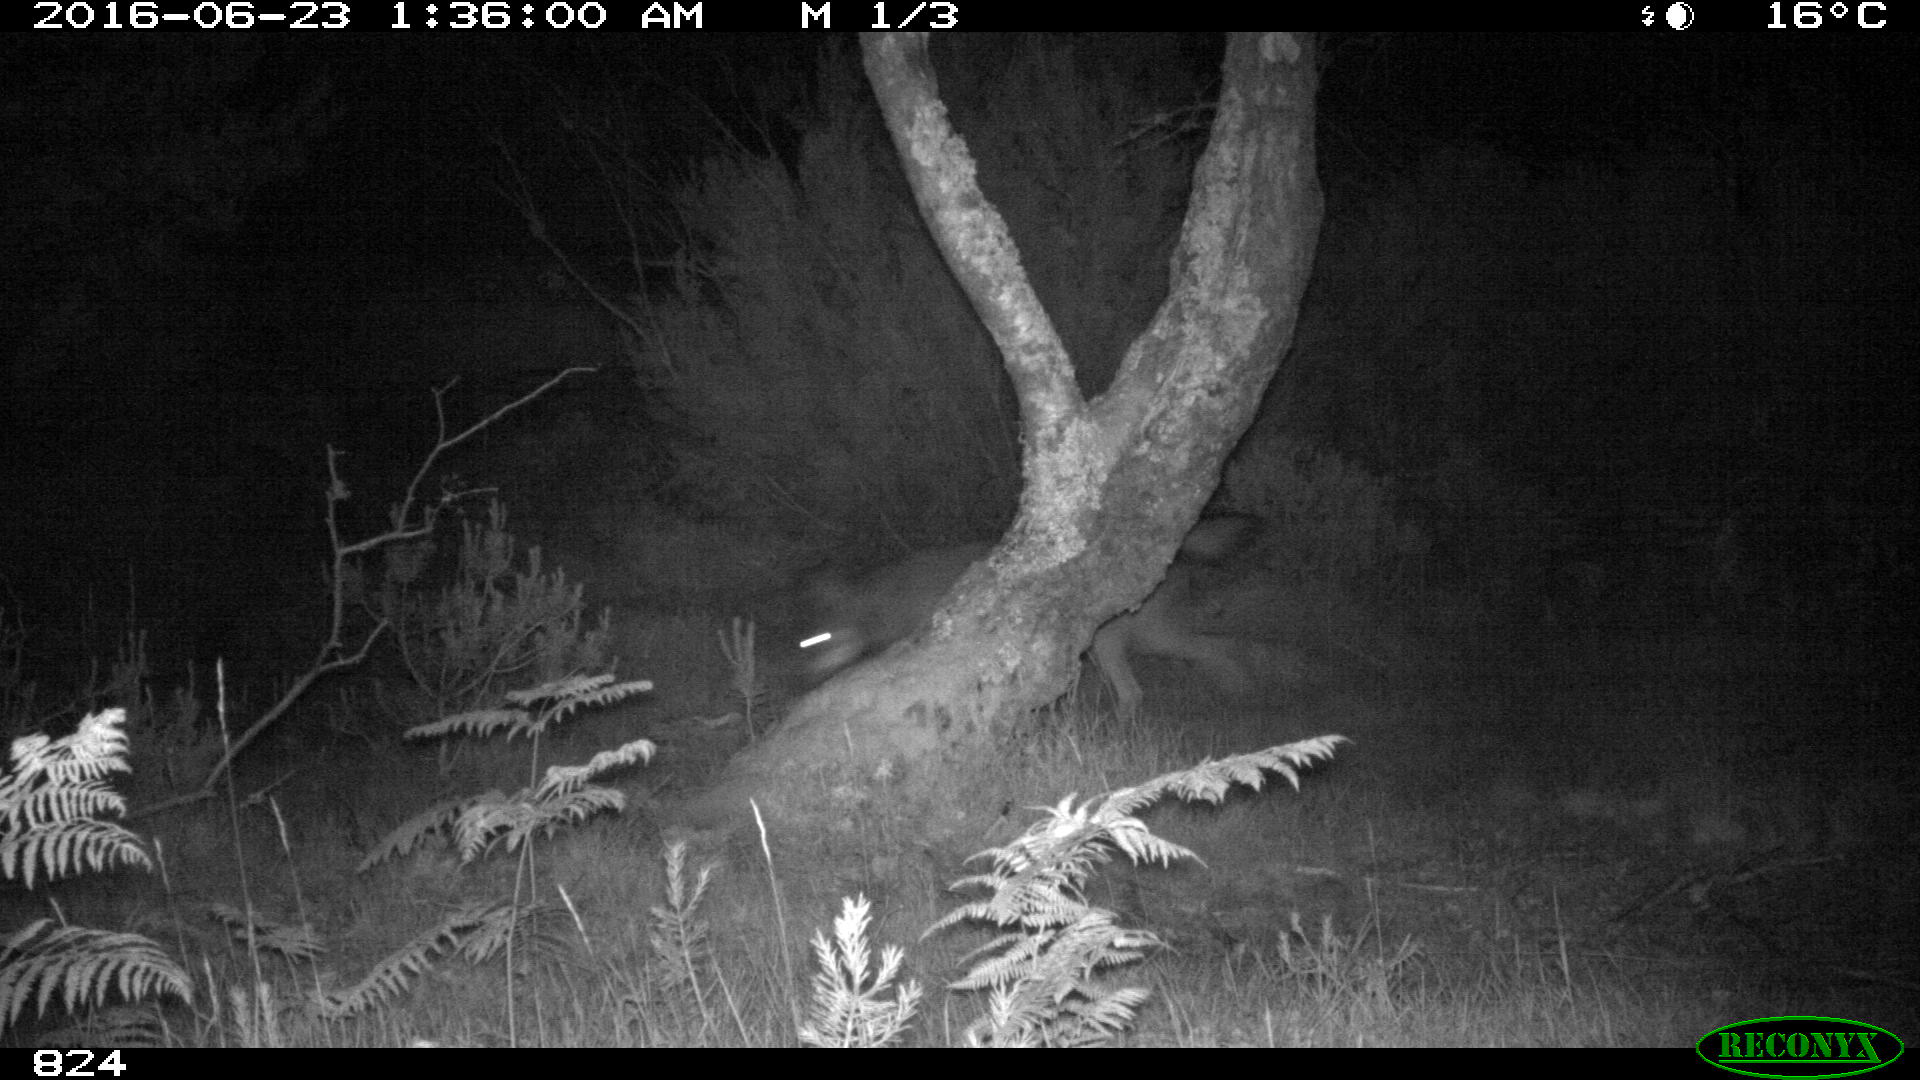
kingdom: Animalia
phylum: Chordata
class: Mammalia
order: Carnivora
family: Canidae
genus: Canis
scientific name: Canis lupus
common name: Gray wolf
